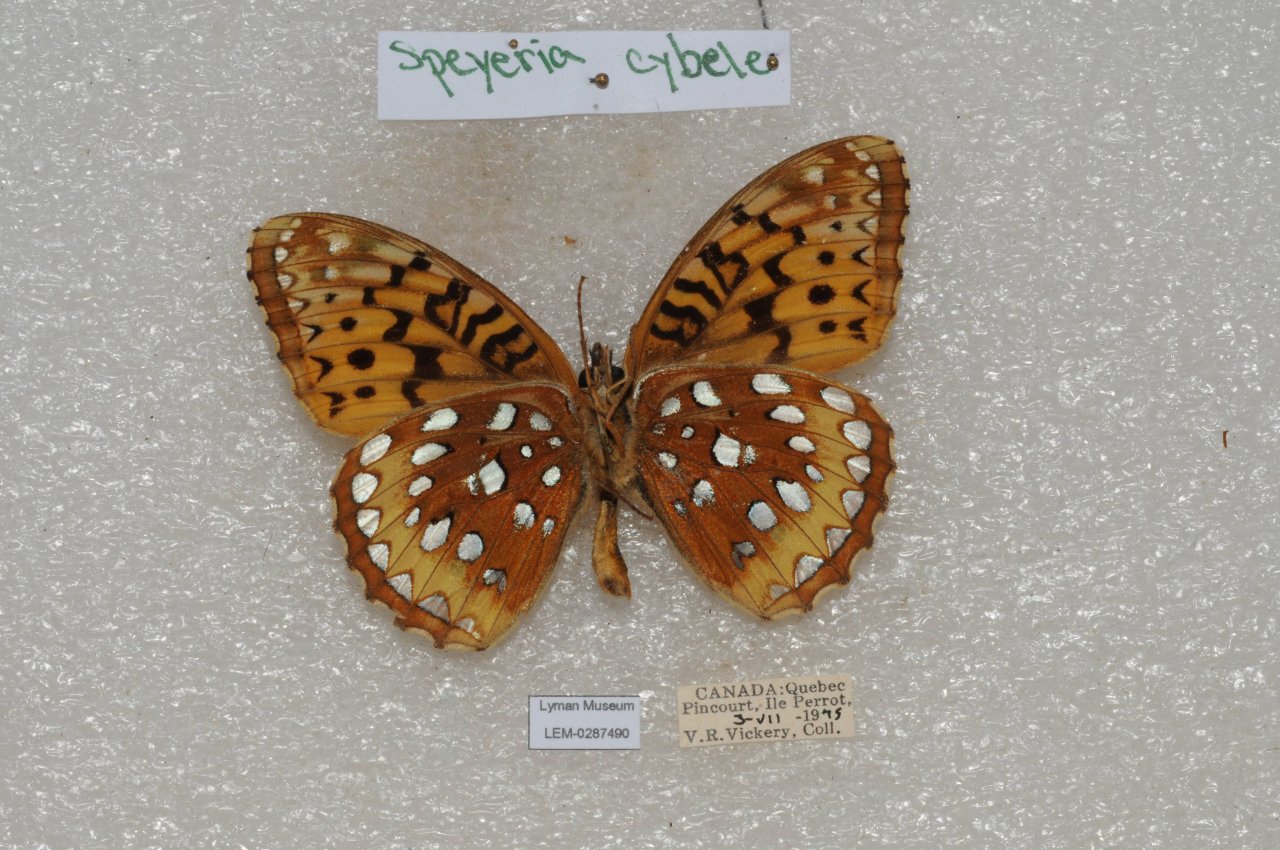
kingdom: Animalia
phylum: Arthropoda
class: Insecta
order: Lepidoptera
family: Nymphalidae
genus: Speyeria
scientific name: Speyeria cybele
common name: Great Spangled Fritillary
